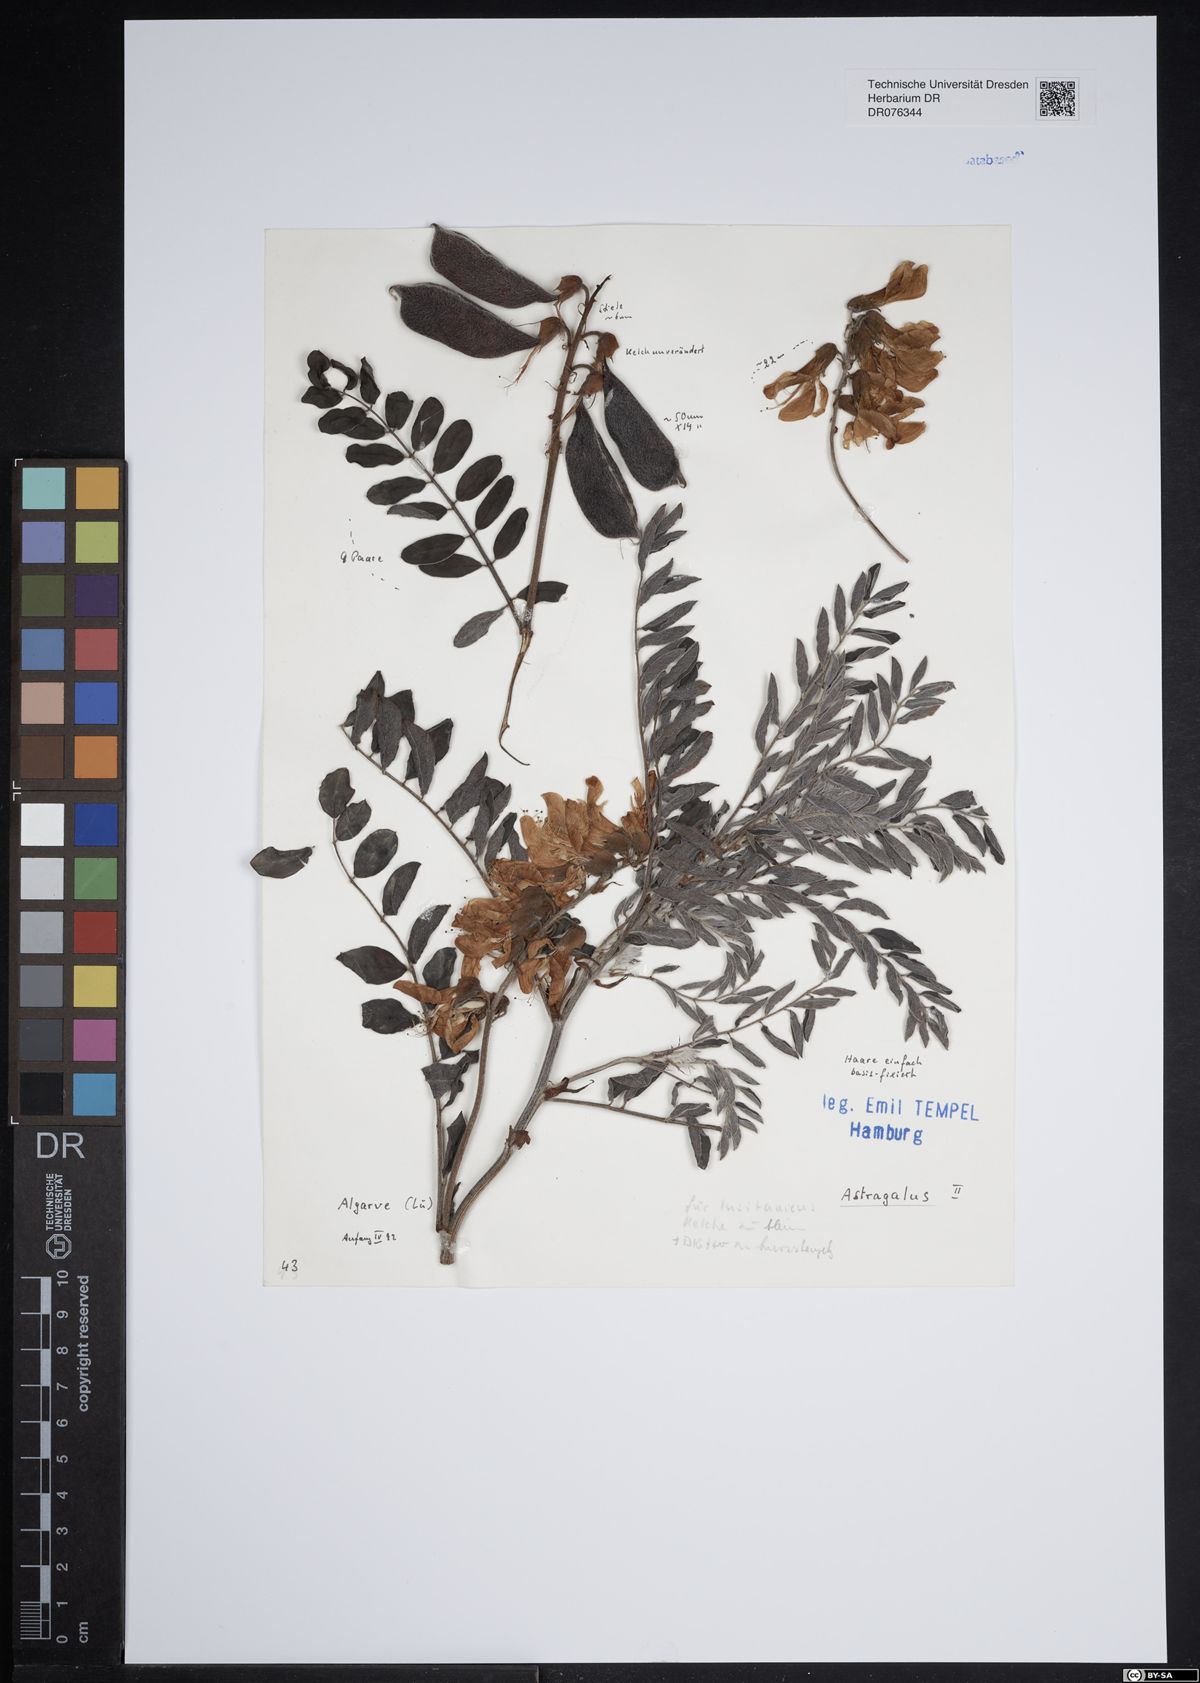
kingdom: Plantae
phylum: Tracheophyta
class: Magnoliopsida
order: Fabales
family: Fabaceae
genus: Astragalus
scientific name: Astragalus
